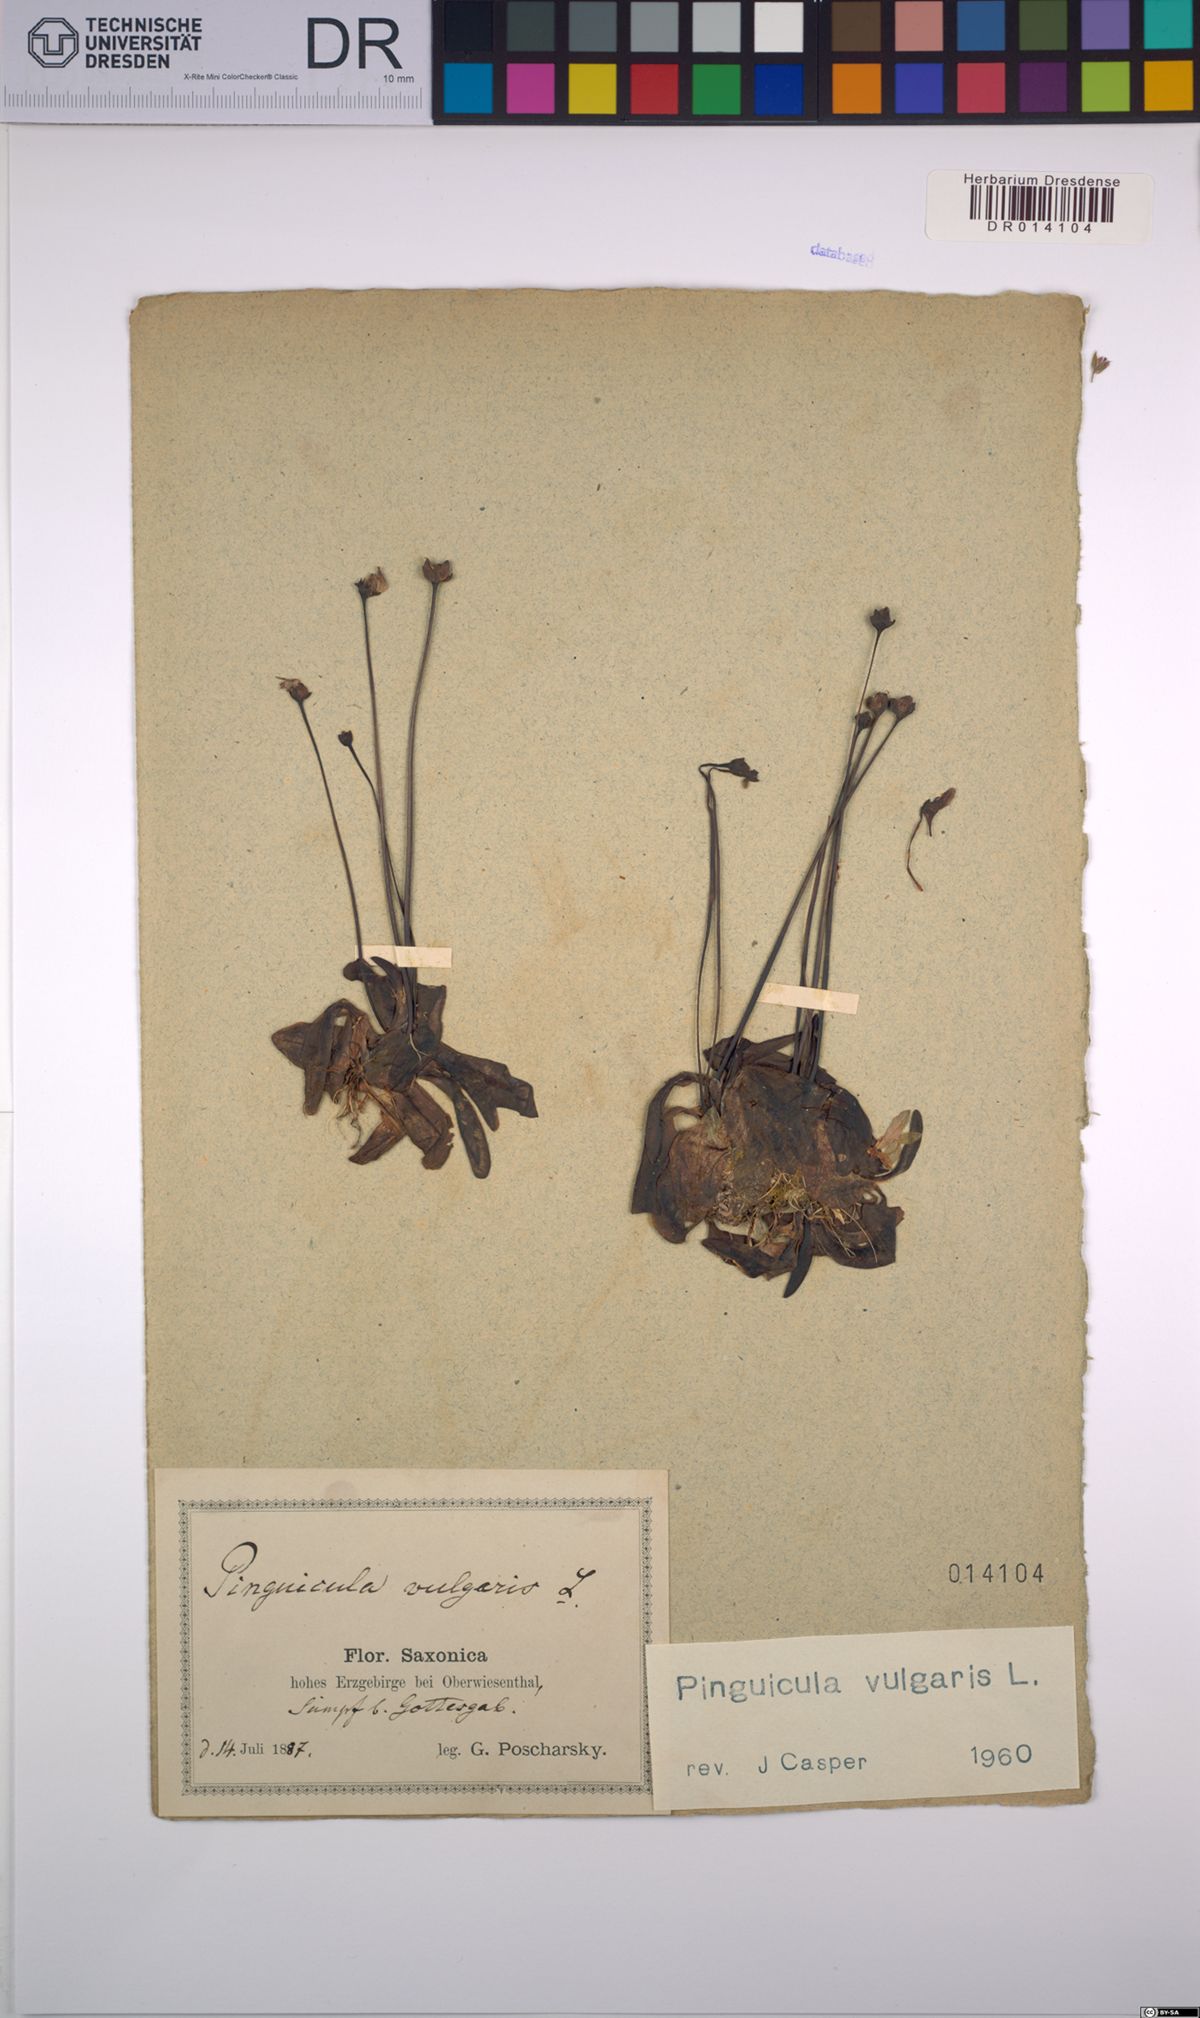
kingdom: Plantae
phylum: Tracheophyta
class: Magnoliopsida
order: Lamiales
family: Lentibulariaceae
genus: Pinguicula
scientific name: Pinguicula vulgaris
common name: Common butterwort
